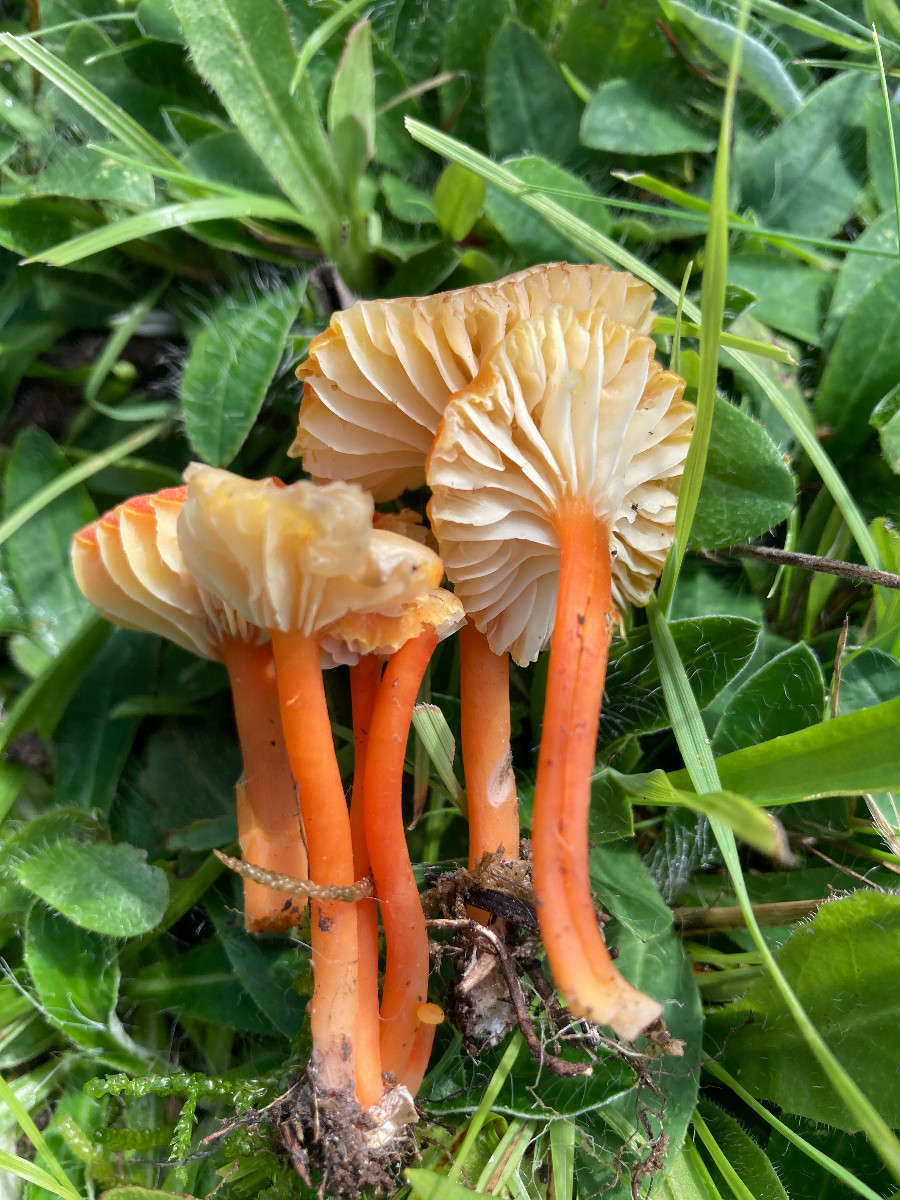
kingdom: Fungi
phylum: Basidiomycota
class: Agaricomycetes
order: Agaricales
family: Hygrophoraceae
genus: Hygrocybe
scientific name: Hygrocybe cantharellus
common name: kantarel-vokshat
